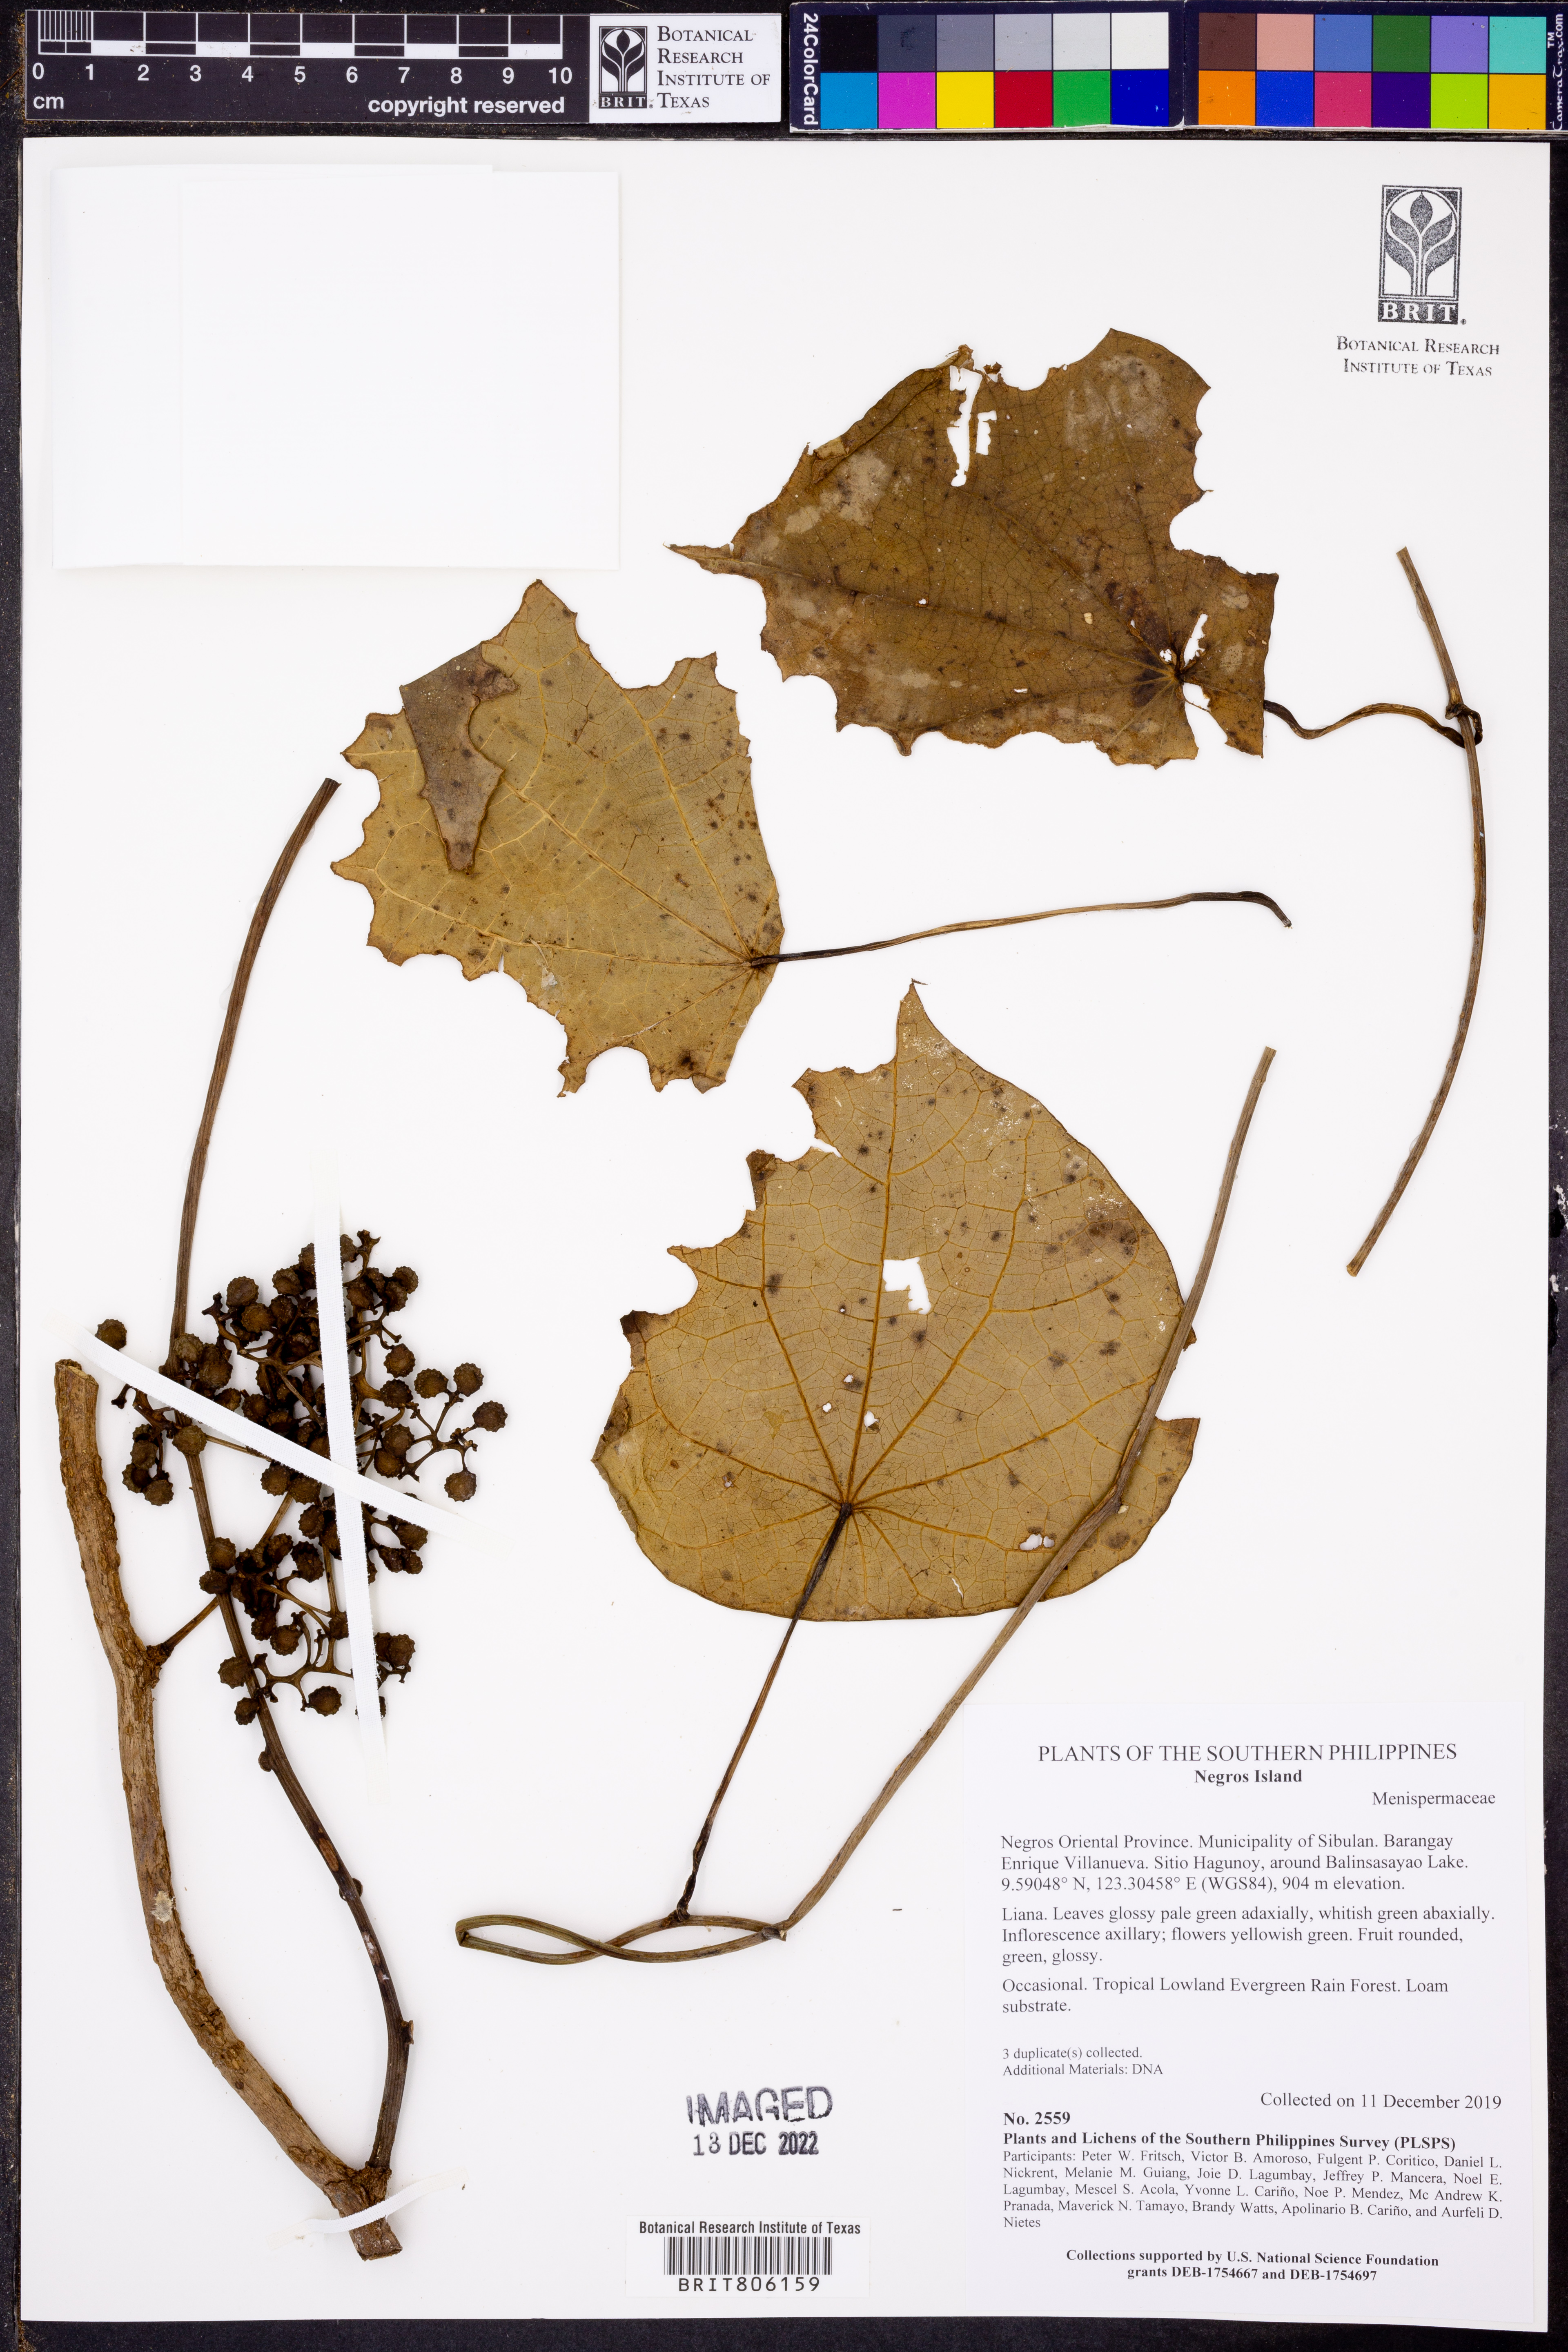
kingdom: Plantae
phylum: Tracheophyta
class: Magnoliopsida
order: Ranunculales
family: Menispermaceae
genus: Stephania
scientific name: Stephania corymbosa
